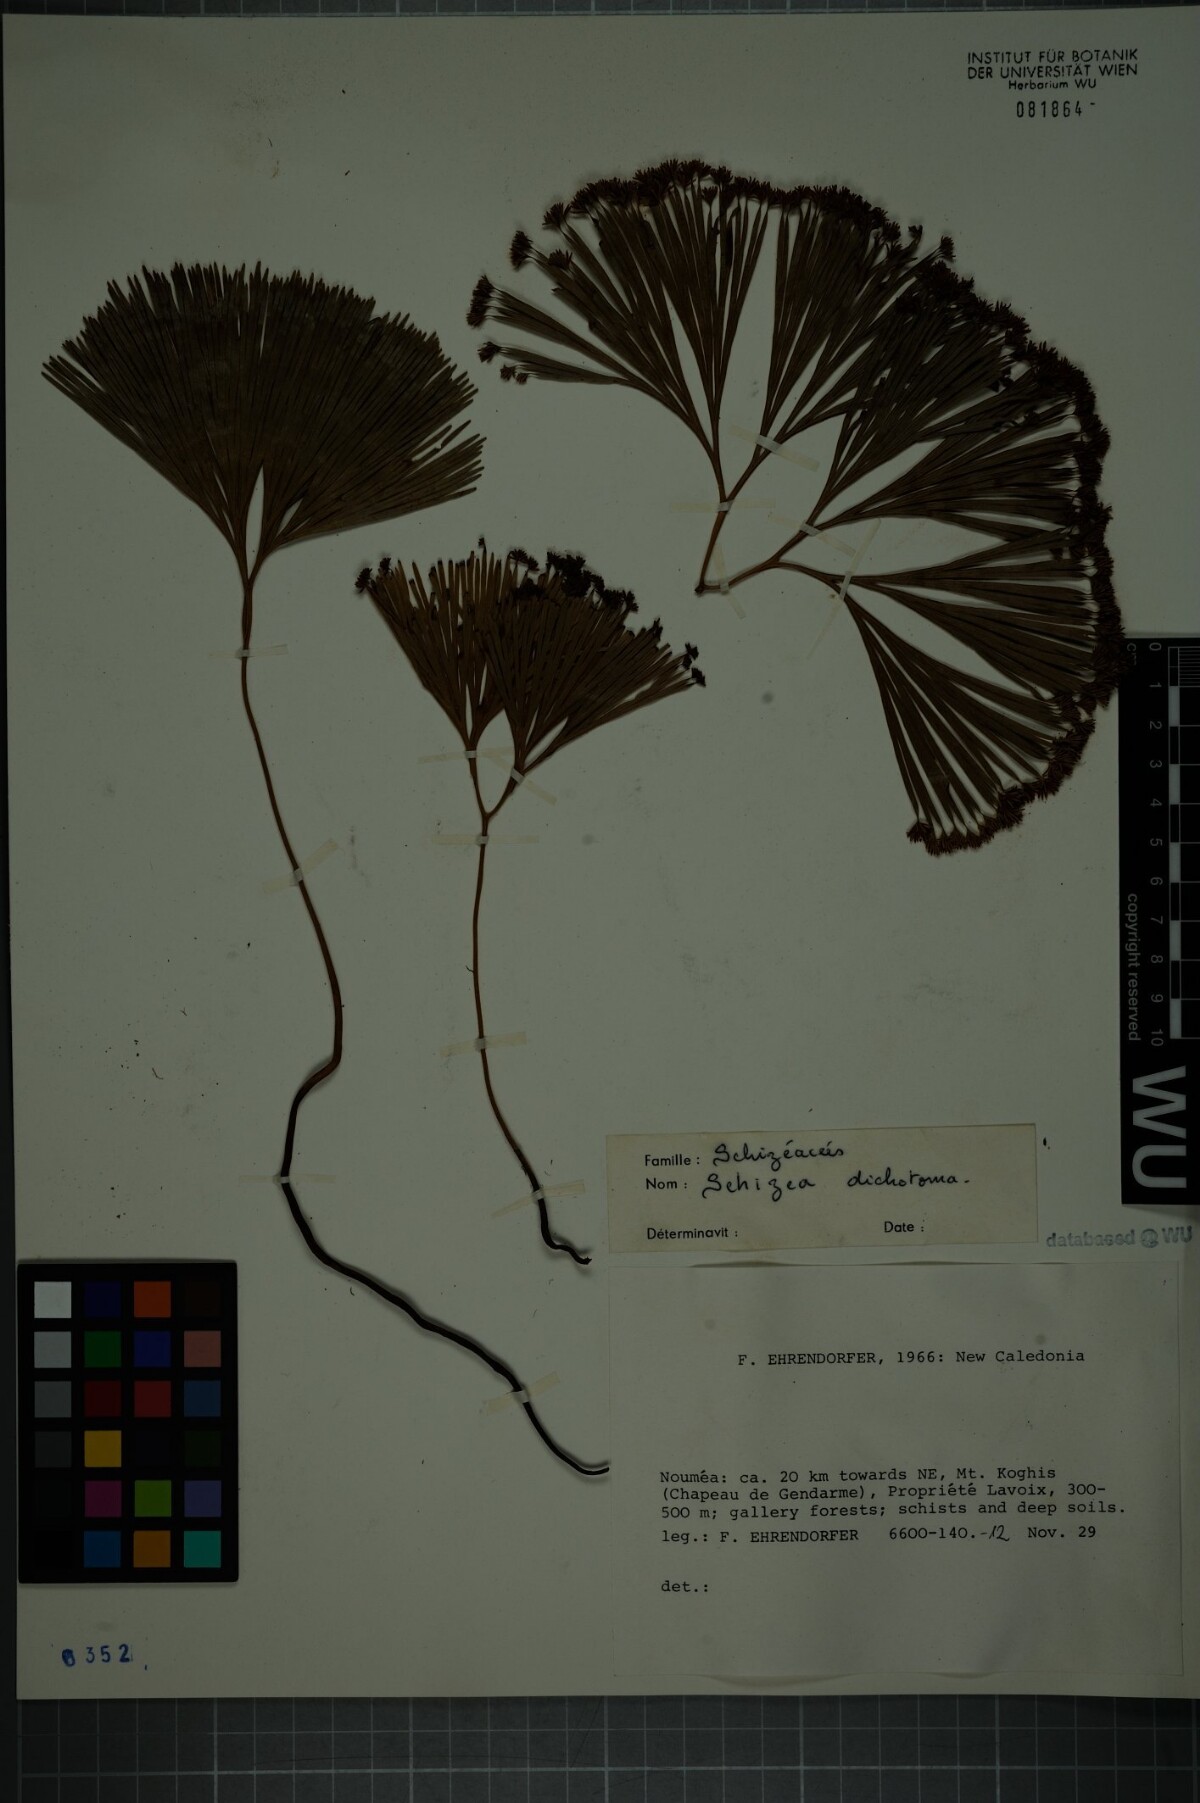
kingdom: Plantae
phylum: Tracheophyta
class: Polypodiopsida
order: Schizaeales
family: Schizaeaceae
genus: Schizaea
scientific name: Schizaea dichotoma
